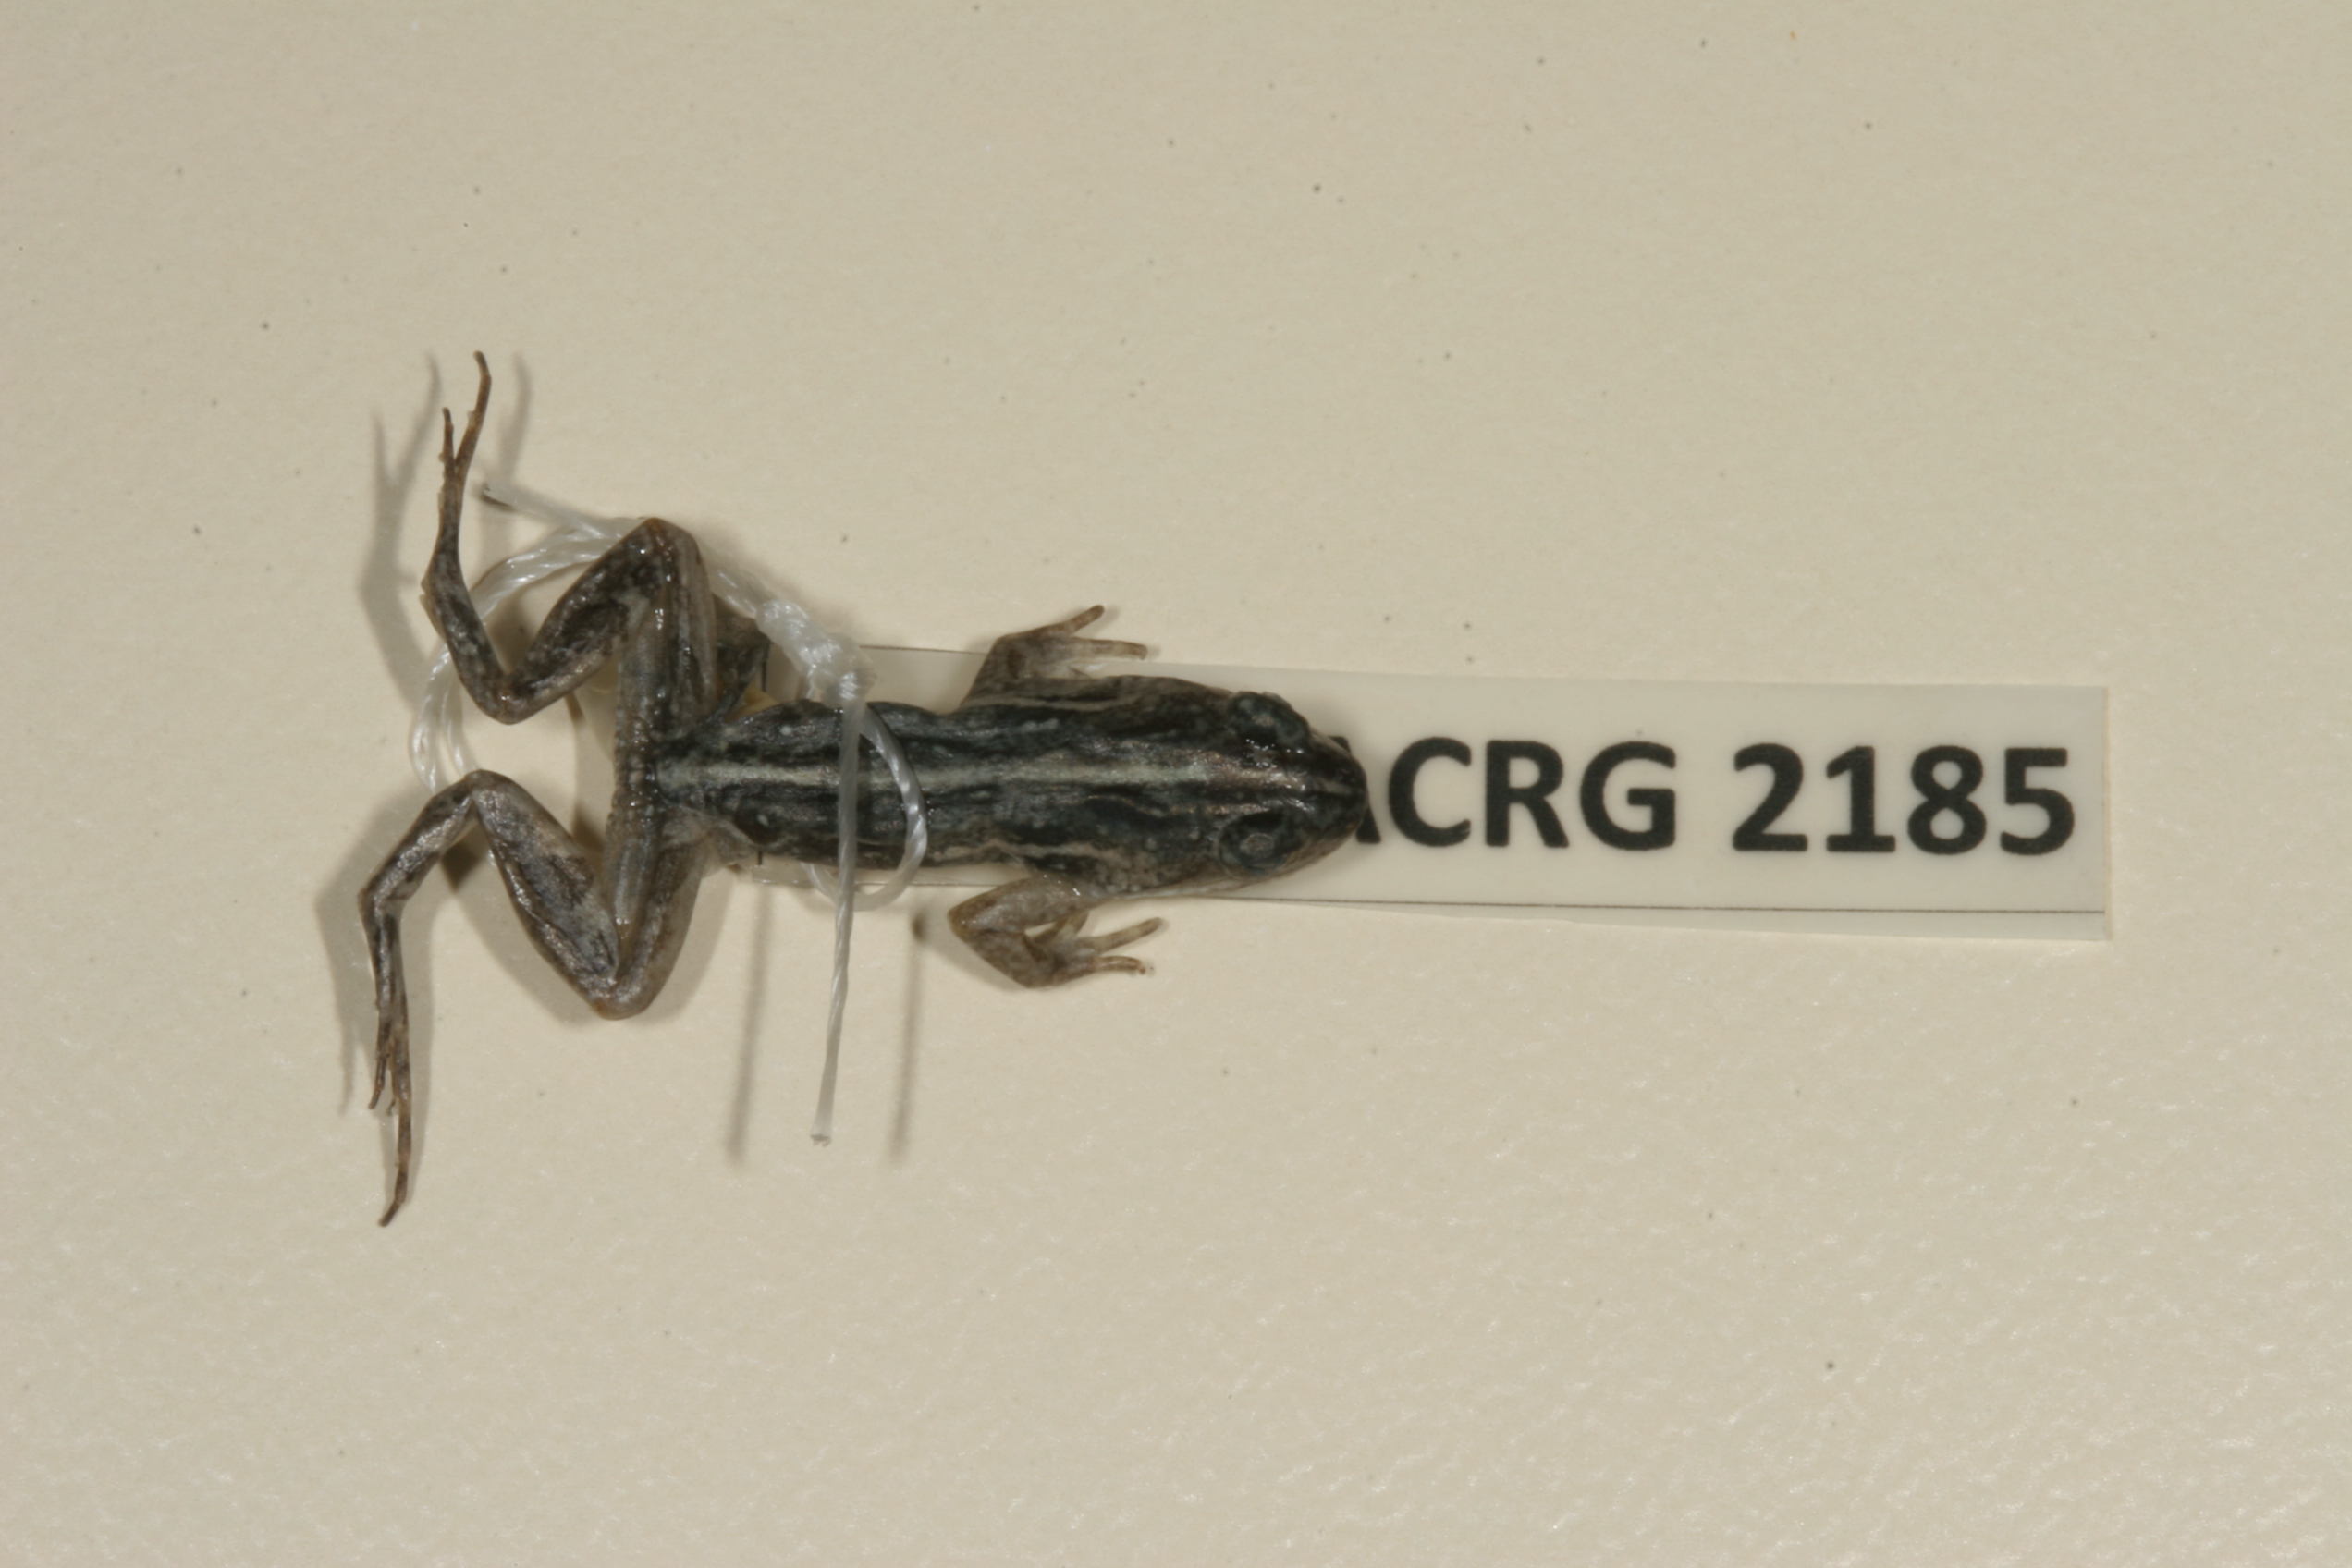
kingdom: Animalia
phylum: Chordata
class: Amphibia
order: Anura
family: Pyxicephalidae
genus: Cacosternum
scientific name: Cacosternum boettgeri
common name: Boettger's frog
